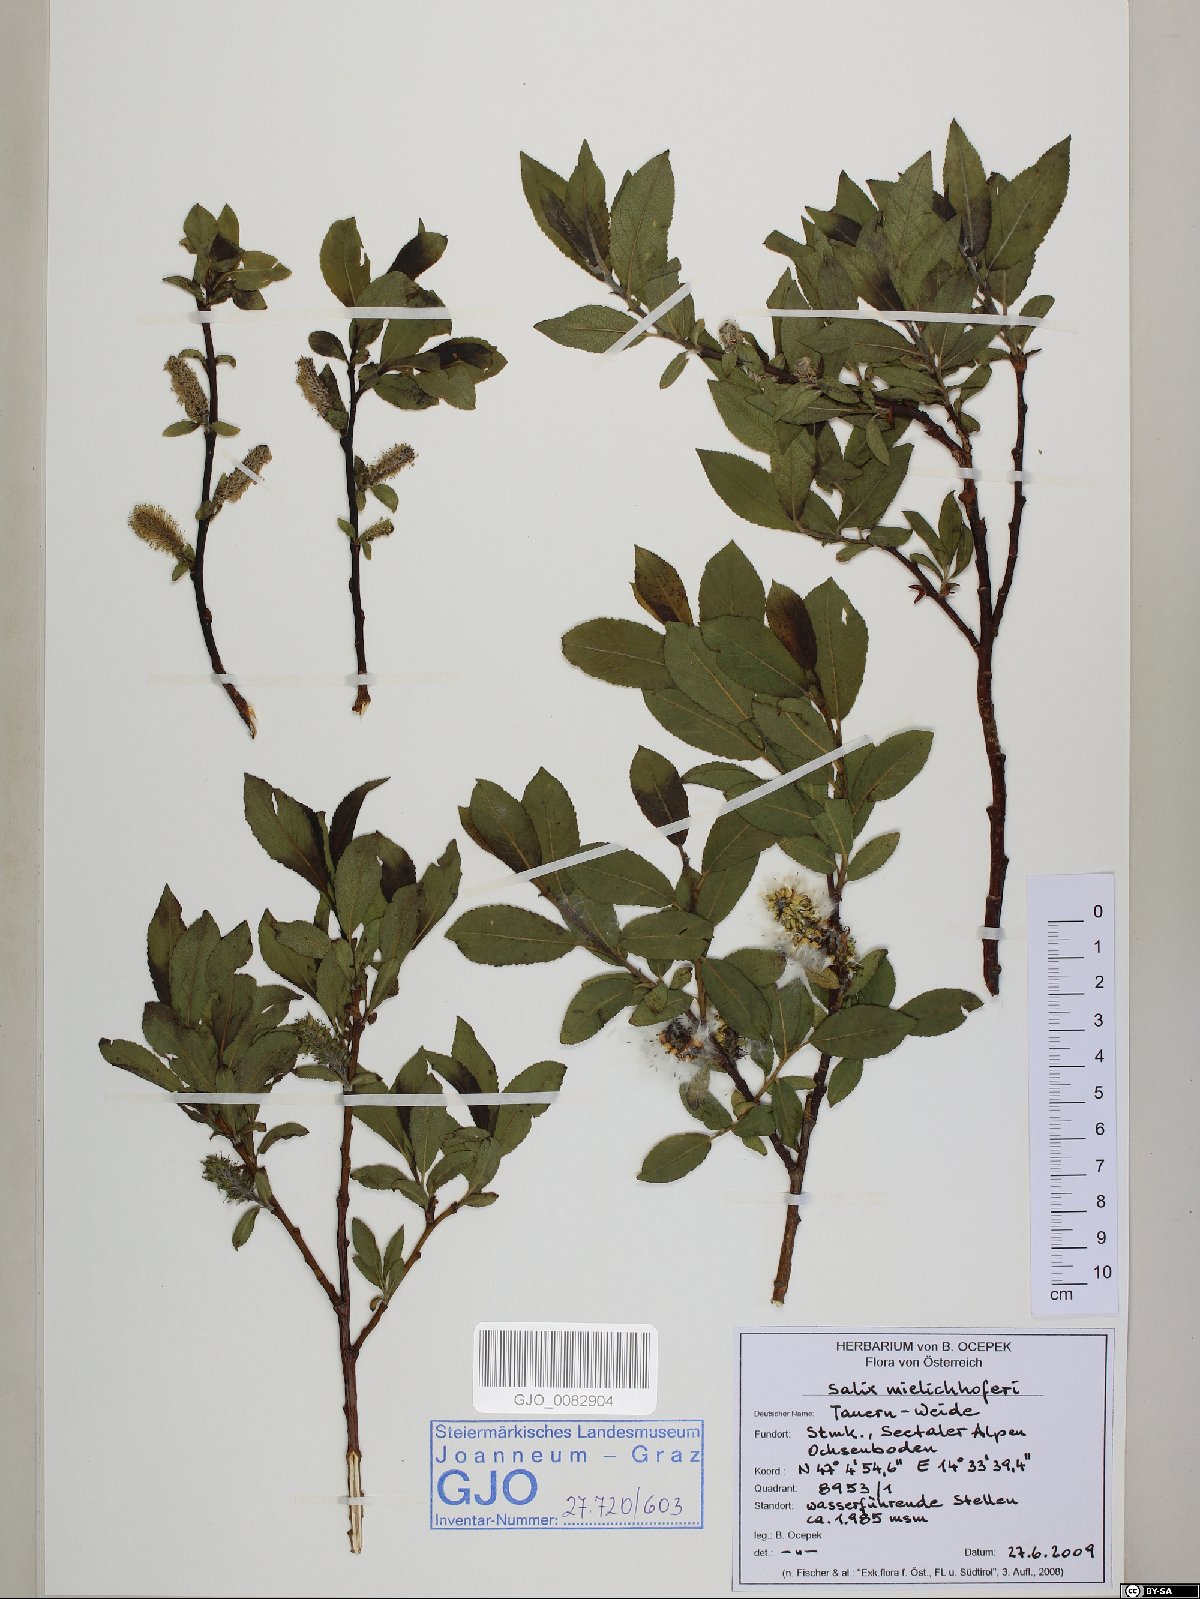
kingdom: Plantae
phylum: Tracheophyta
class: Magnoliopsida
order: Malpighiales
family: Salicaceae
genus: Salix
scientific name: Salix mielichhoferi
